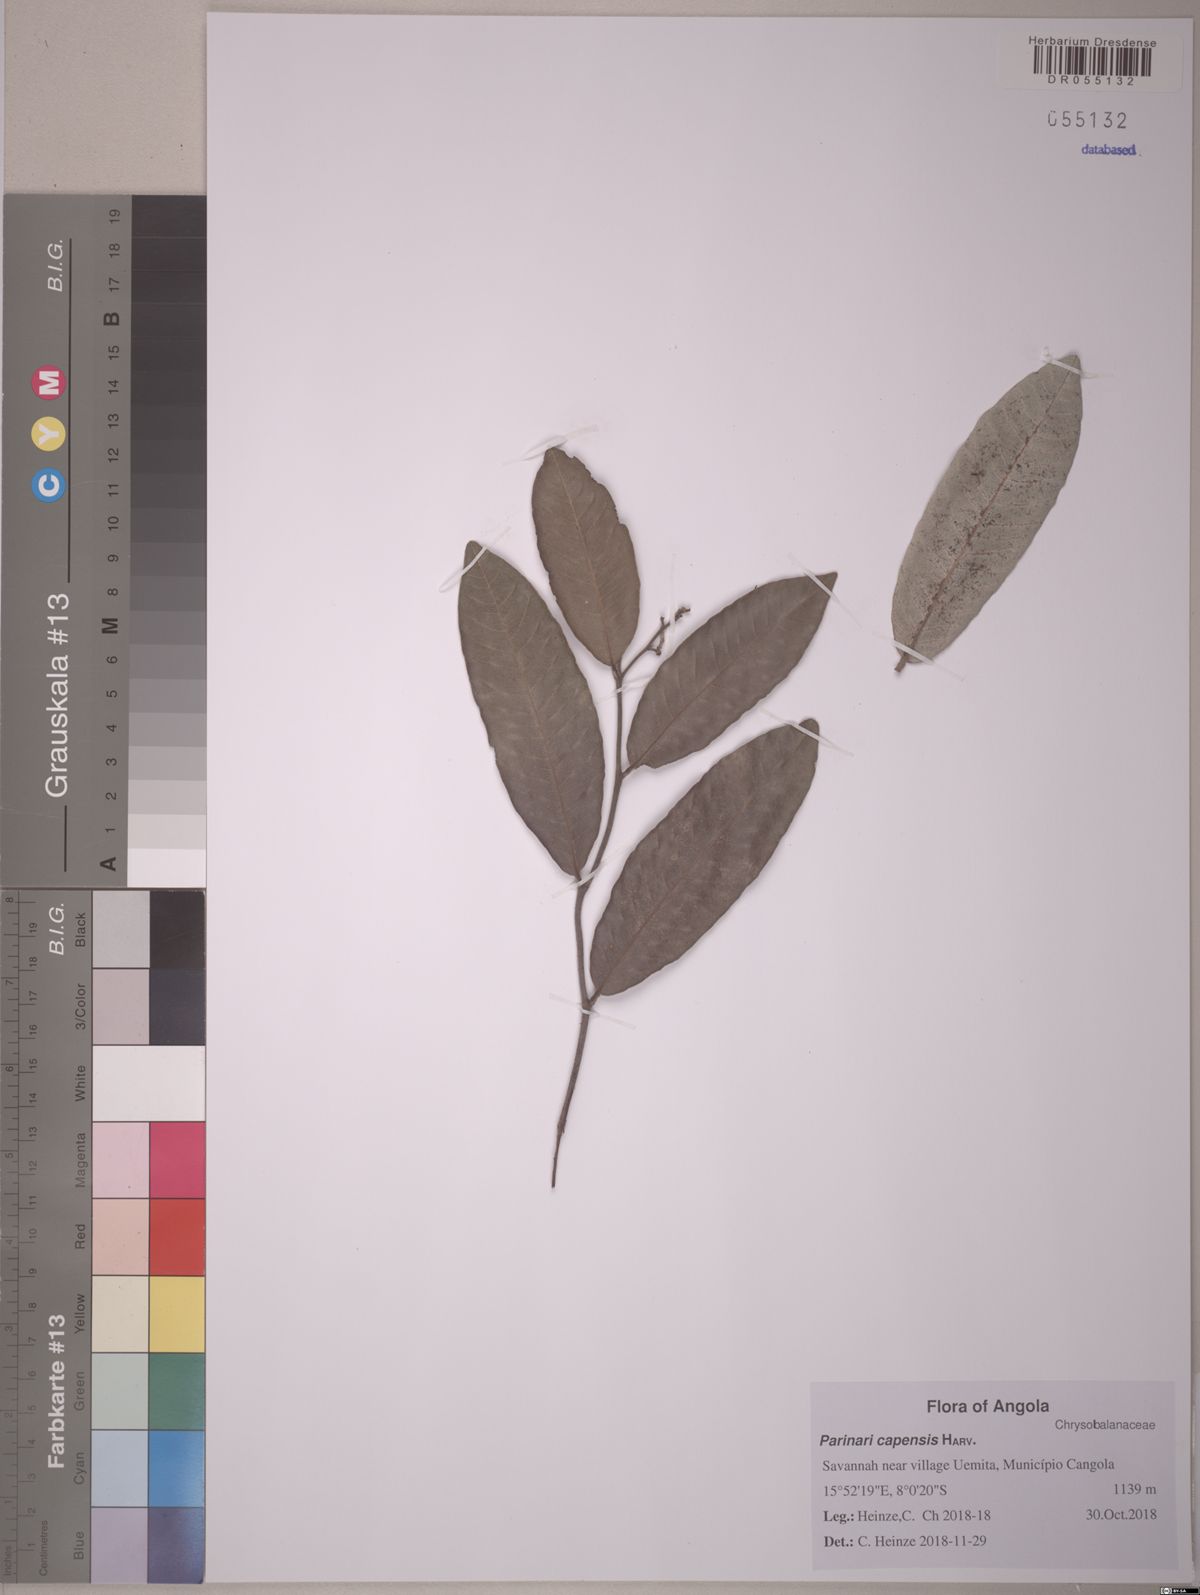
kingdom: Plantae
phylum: Tracheophyta
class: Magnoliopsida
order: Malpighiales
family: Chrysobalanaceae
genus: Parinari
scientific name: Parinari capensis
